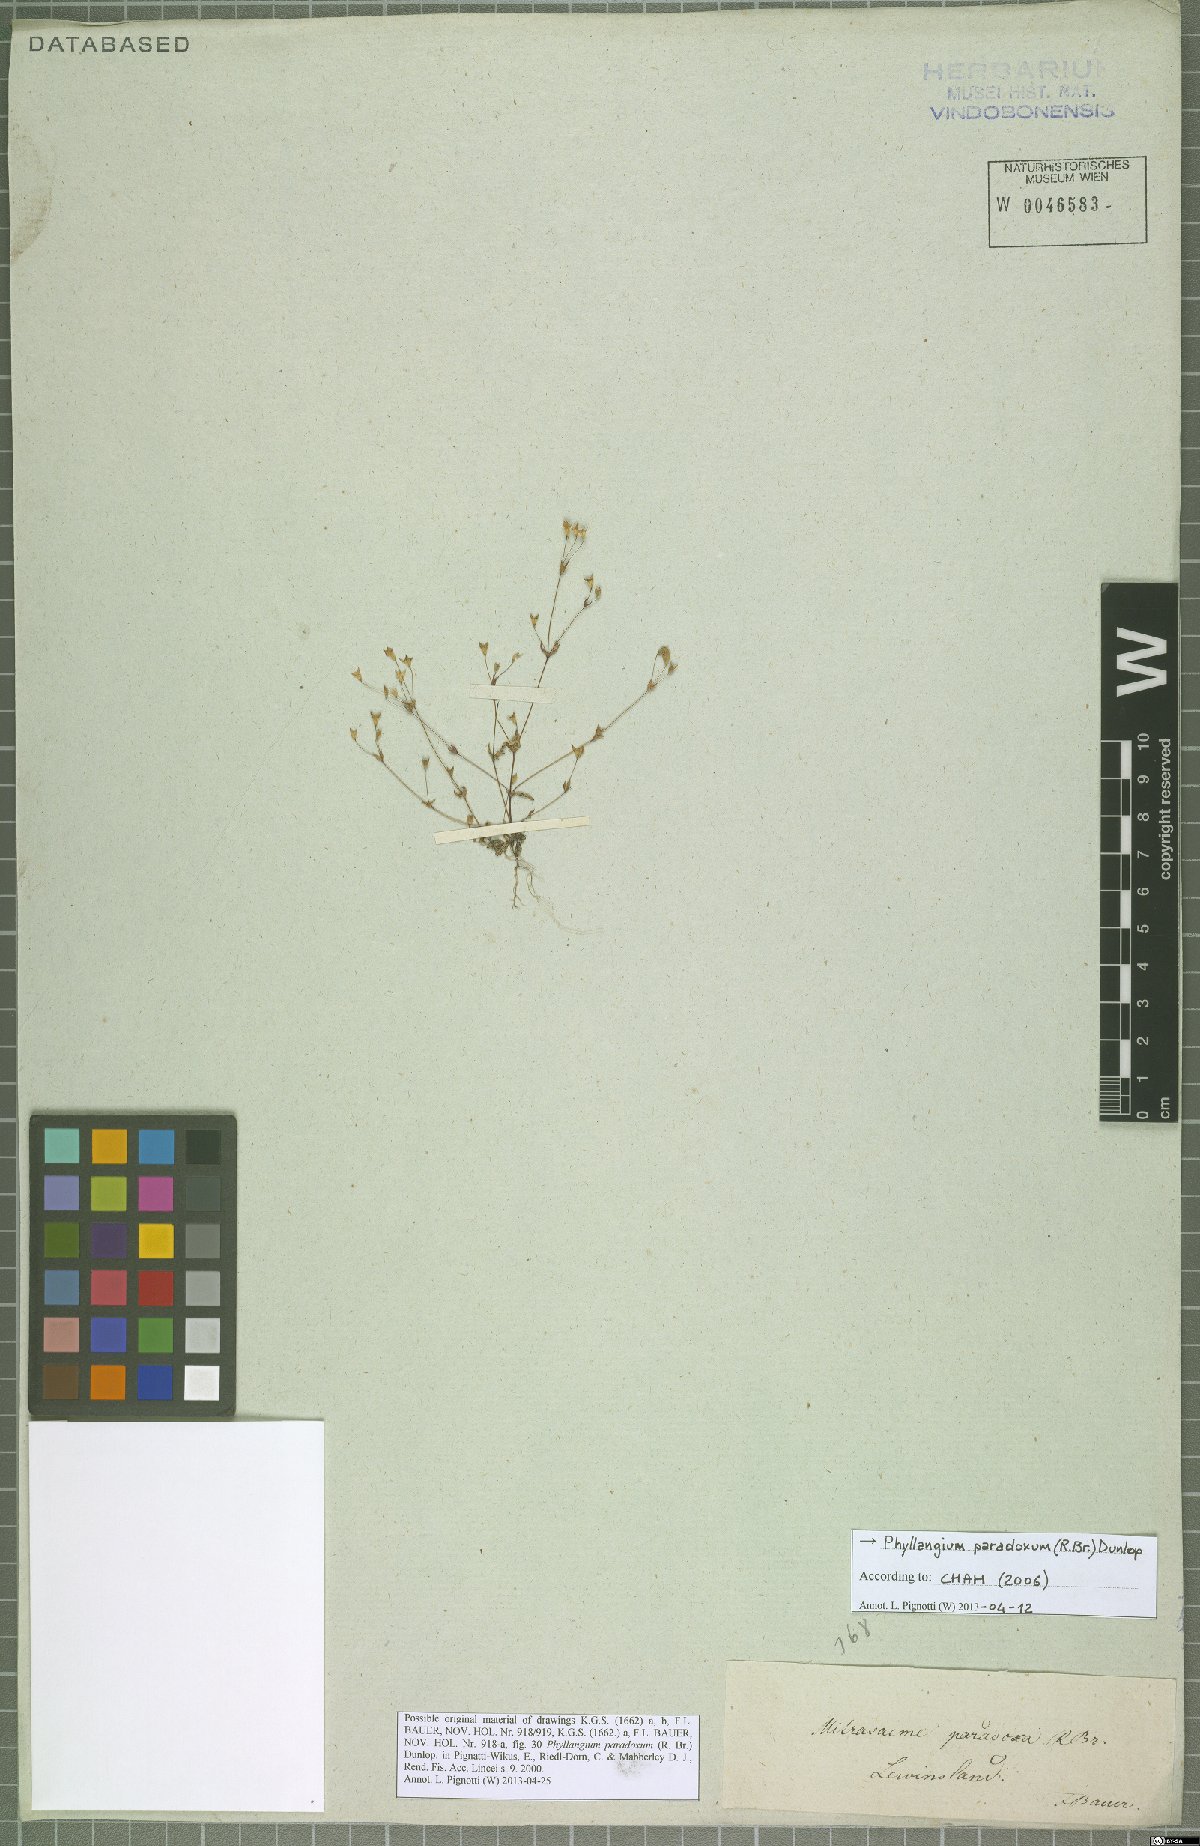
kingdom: Plantae
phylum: Tracheophyta
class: Magnoliopsida
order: Gentianales
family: Loganiaceae
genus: Phyllangium
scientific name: Phyllangium paradoxum
